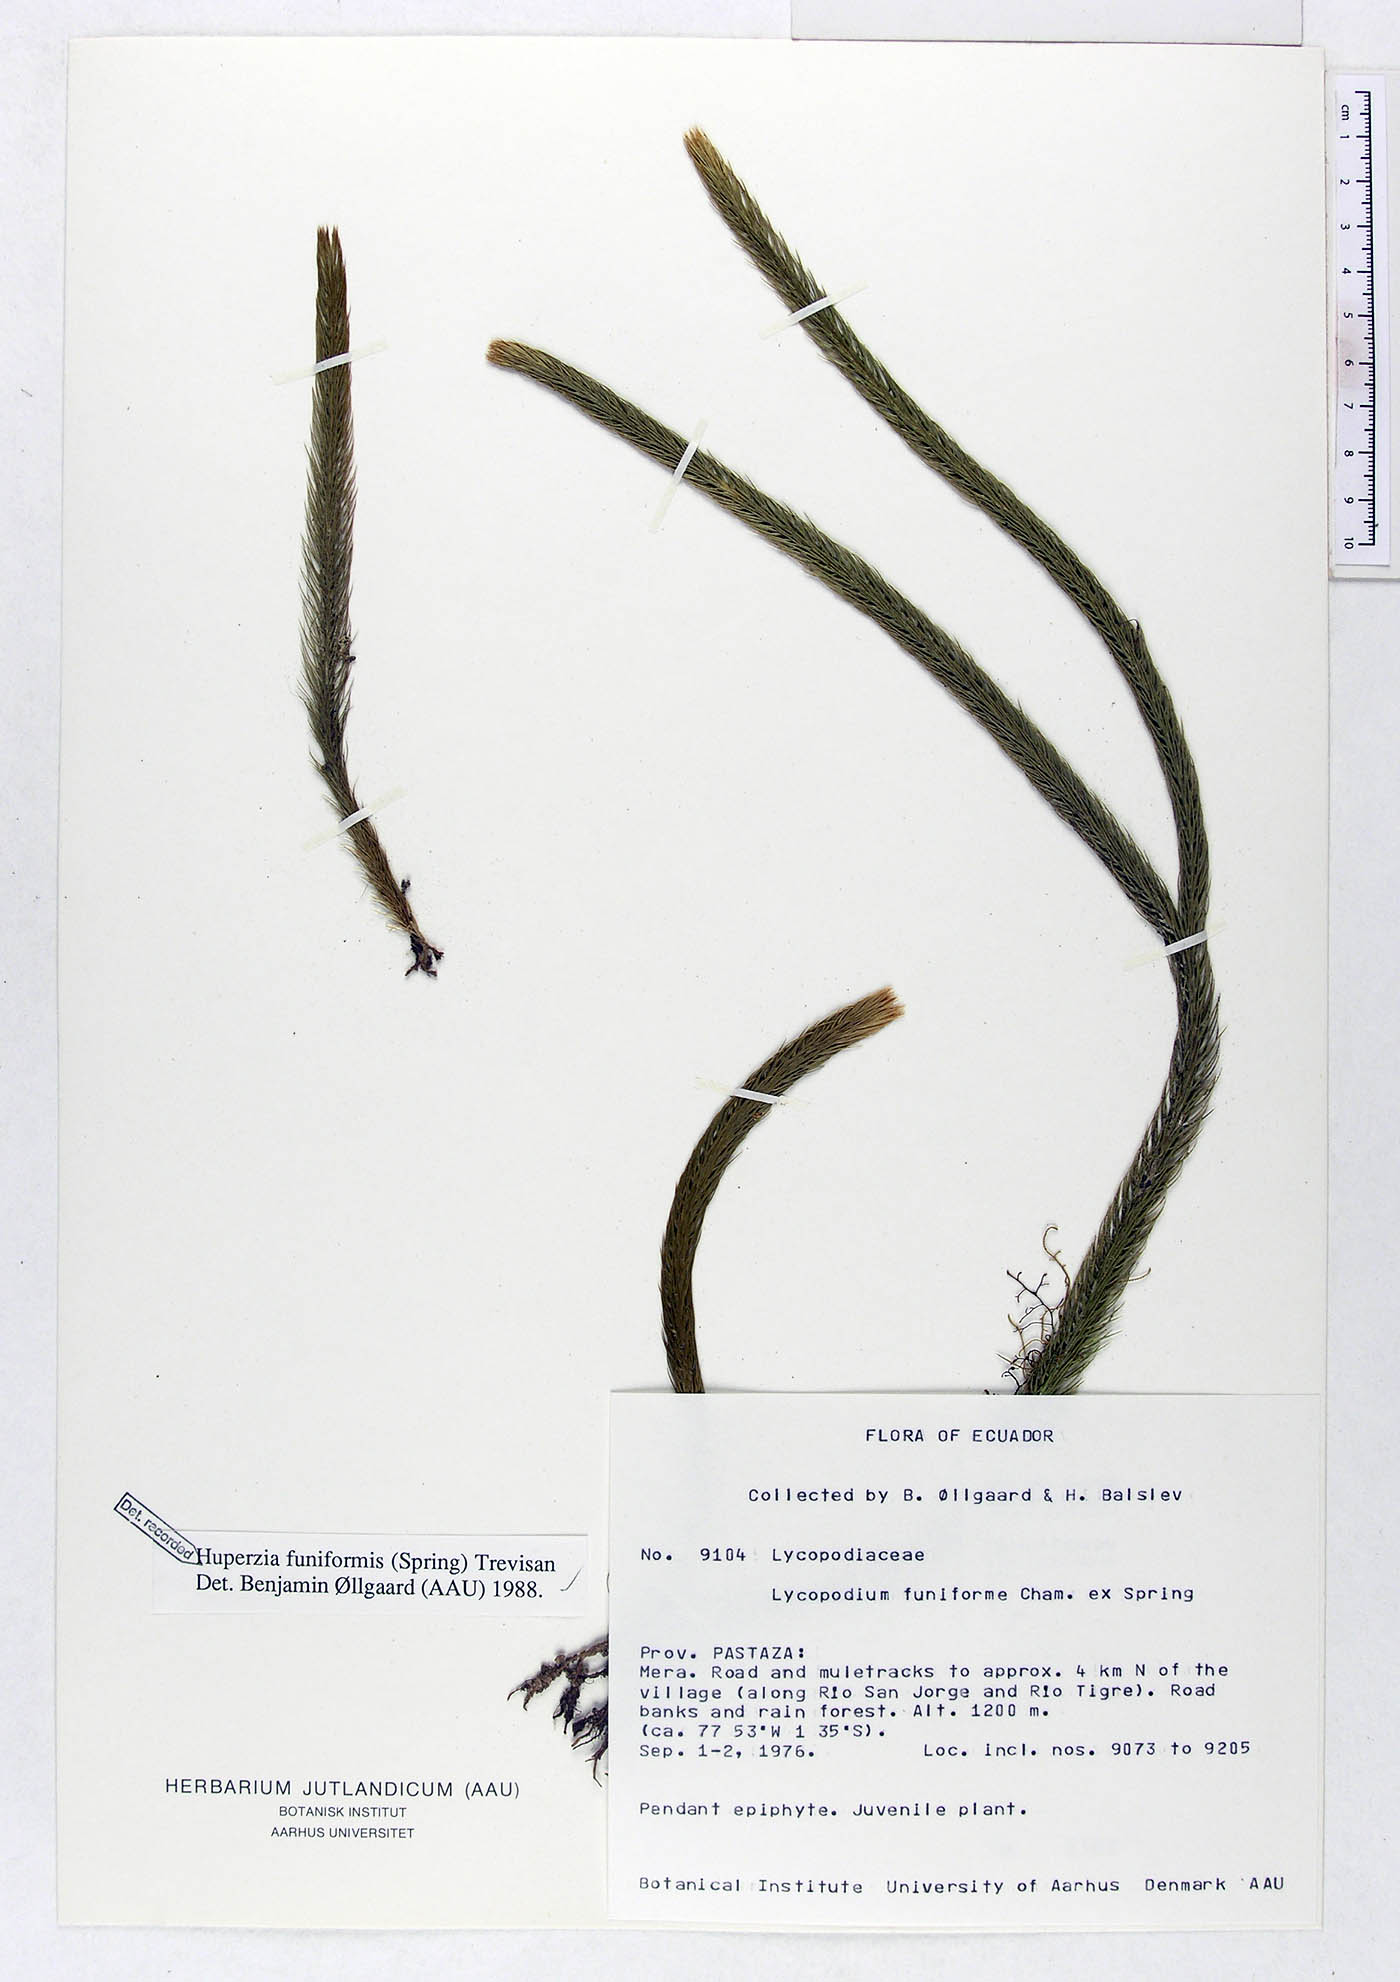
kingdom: Plantae
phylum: Tracheophyta
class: Lycopodiopsida
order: Lycopodiales
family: Lycopodiaceae
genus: Phlegmariurus
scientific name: Phlegmariurus funiformis
